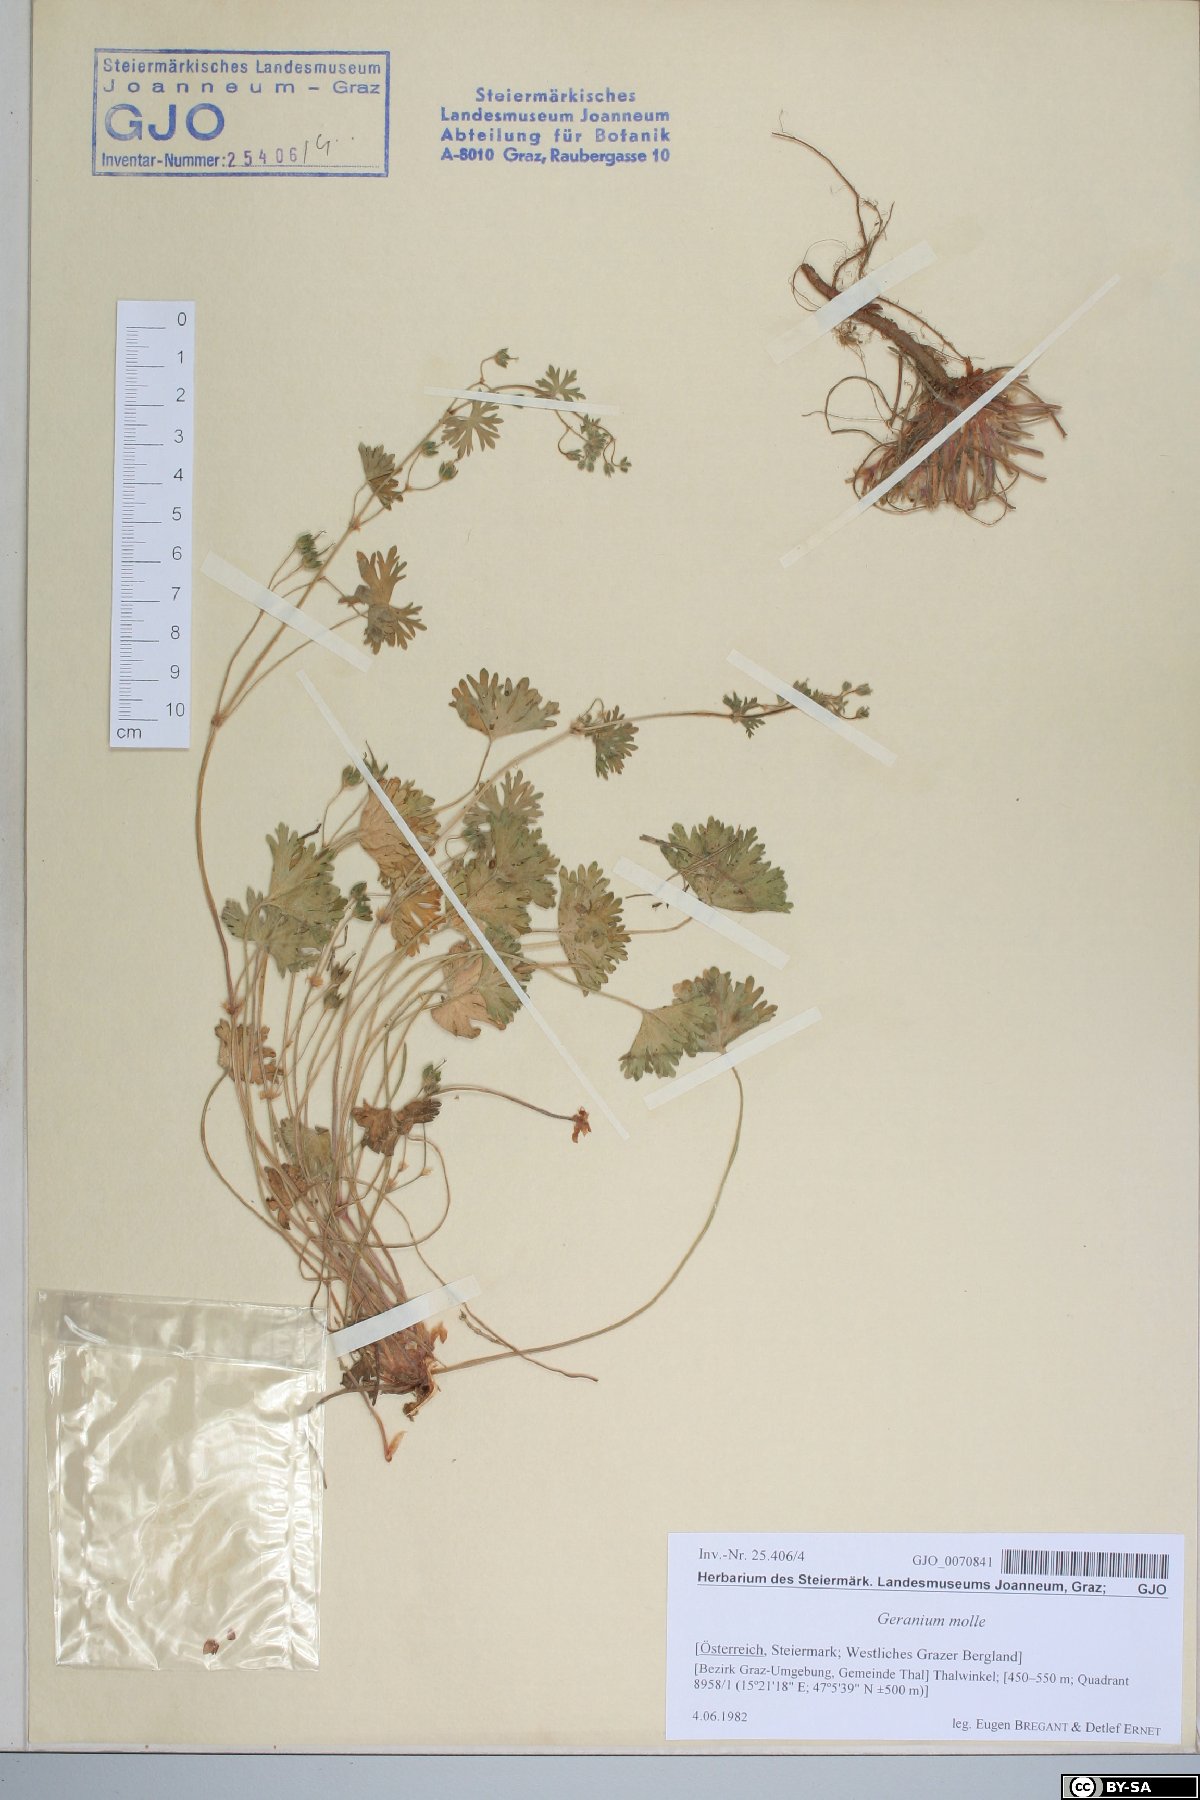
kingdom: Plantae
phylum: Tracheophyta
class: Magnoliopsida
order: Geraniales
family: Geraniaceae
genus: Geranium
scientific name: Geranium molle
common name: Dove's-foot crane's-bill
